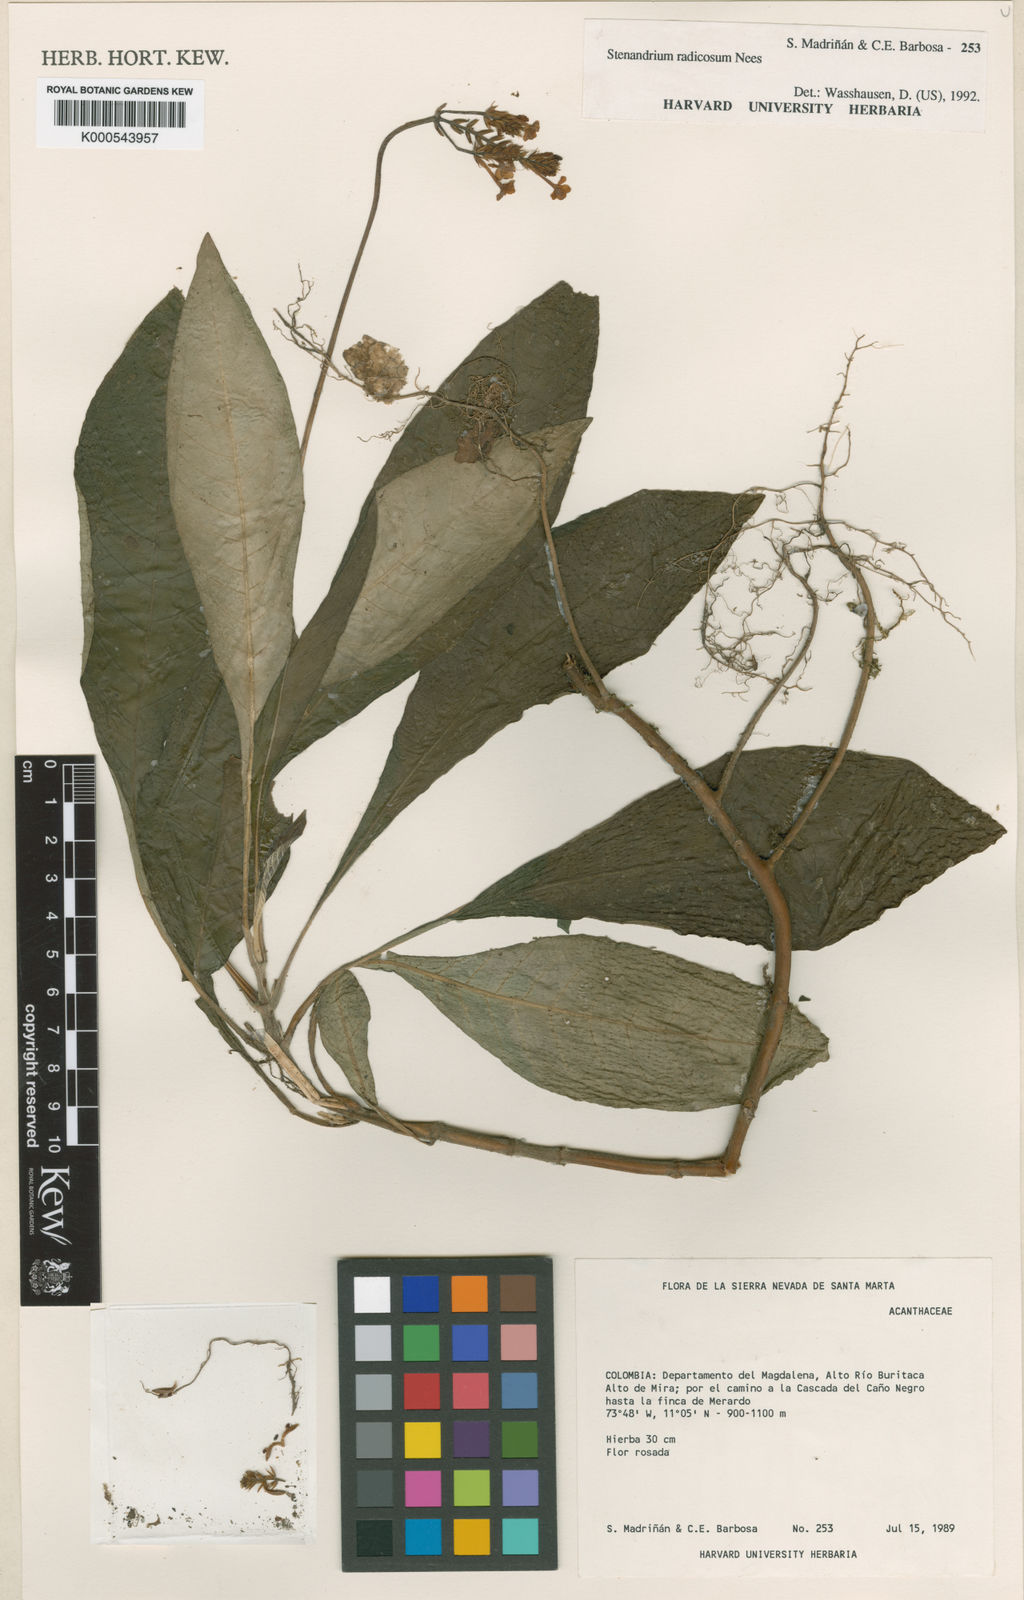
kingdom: Plantae
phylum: Tracheophyta
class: Magnoliopsida
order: Lamiales
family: Acanthaceae
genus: Stenandrium
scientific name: Stenandrium radicosum
